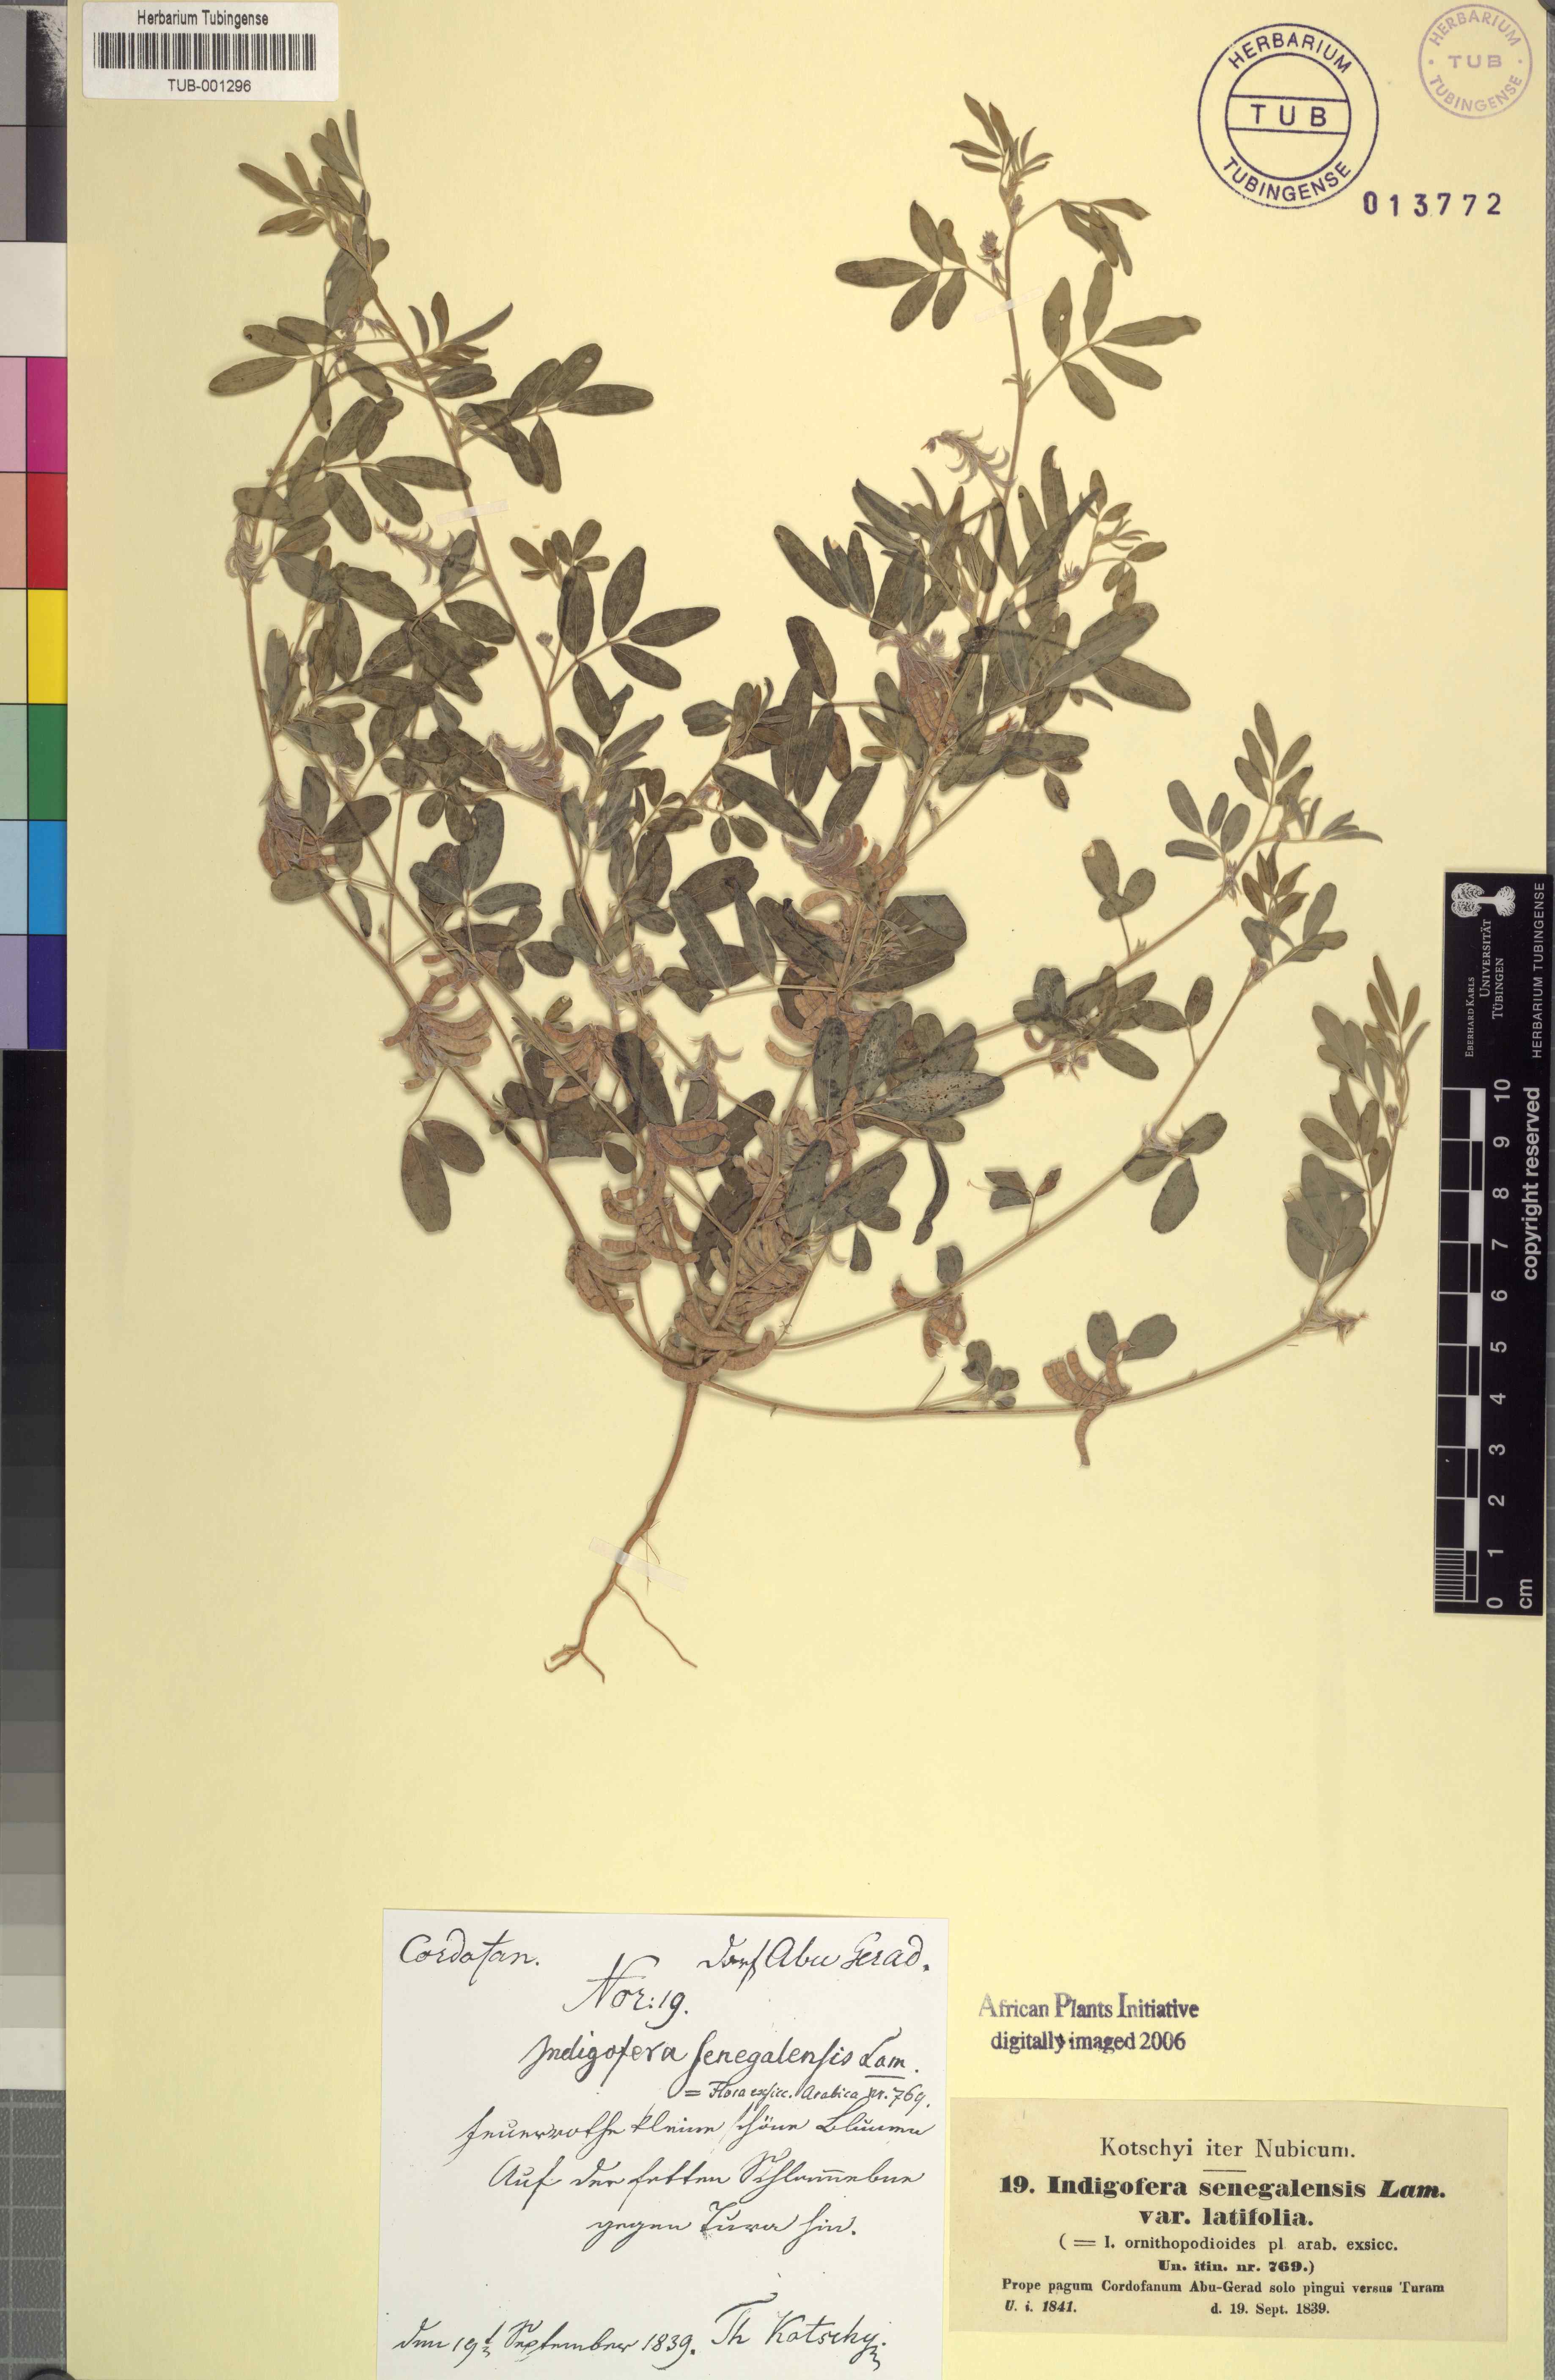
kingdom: Plantae
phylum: Tracheophyta
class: Magnoliopsida
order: Fabales
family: Fabaceae
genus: Indigofera
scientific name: Indigofera senegalensis
